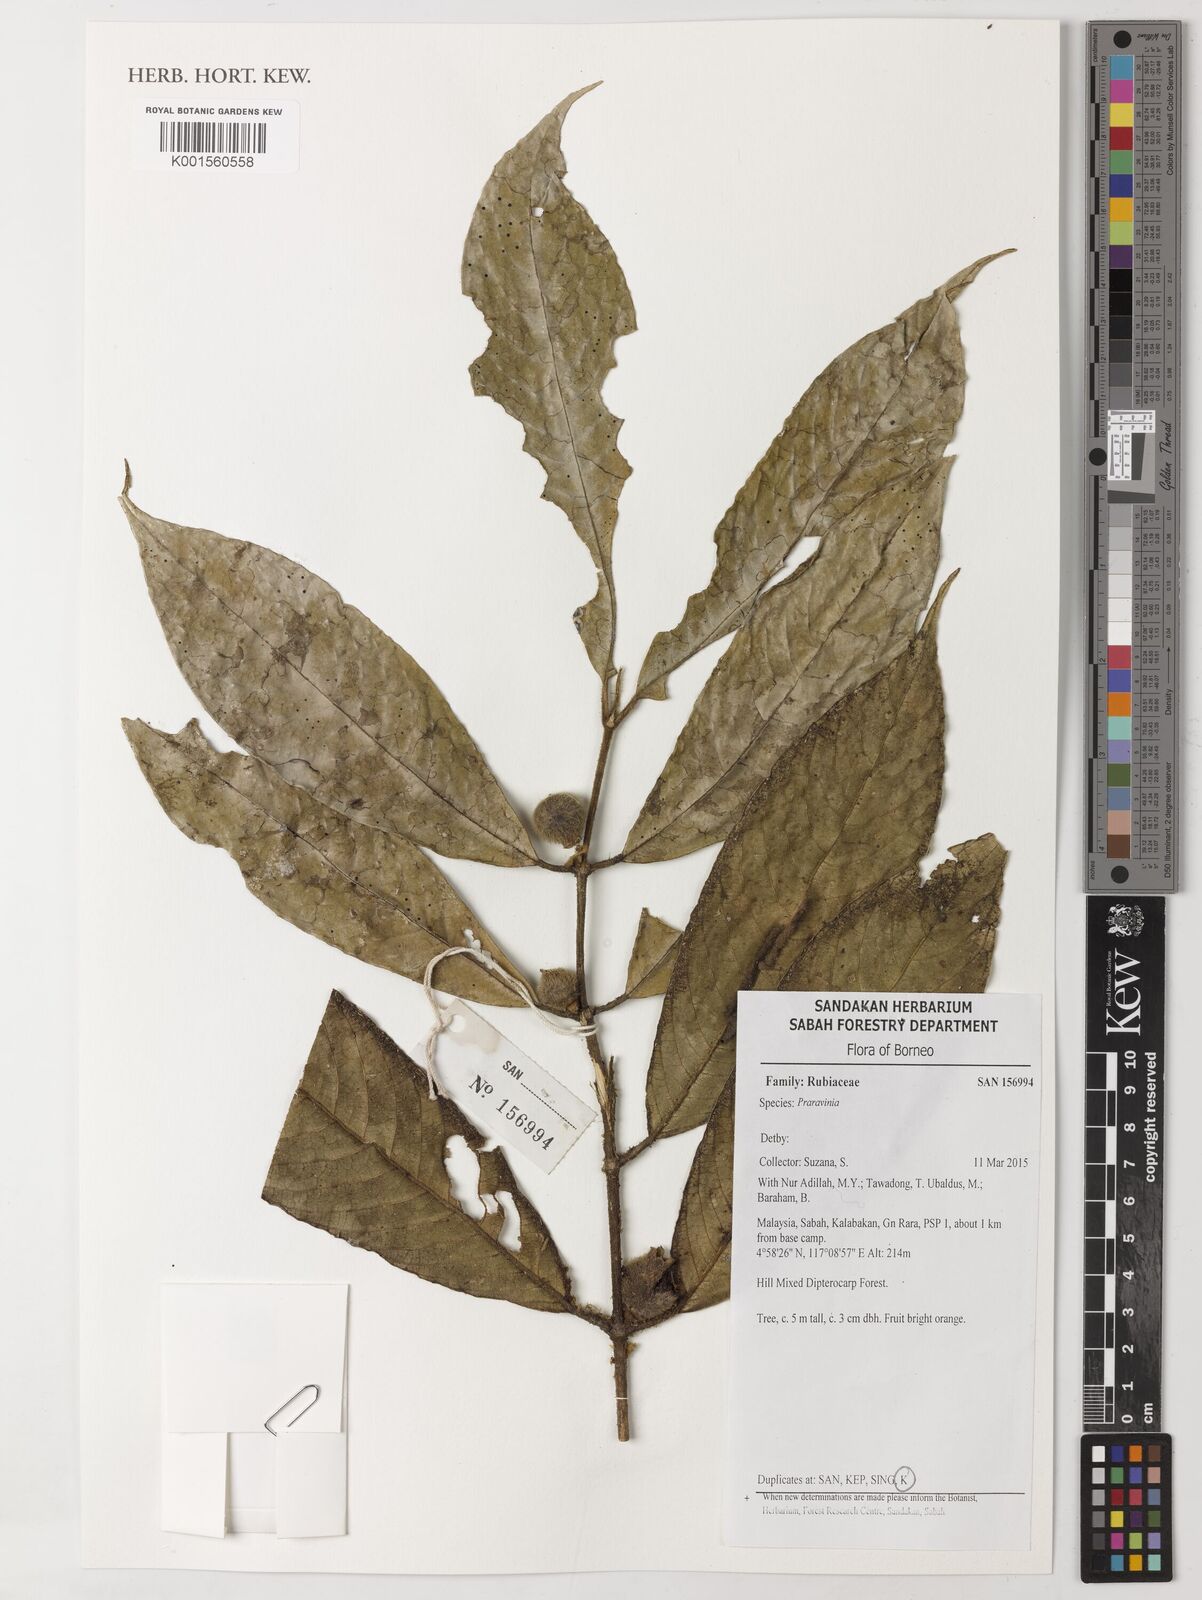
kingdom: Plantae
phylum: Tracheophyta
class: Magnoliopsida
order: Gentianales
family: Rubiaceae
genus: Praravinia
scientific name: Praravinia
